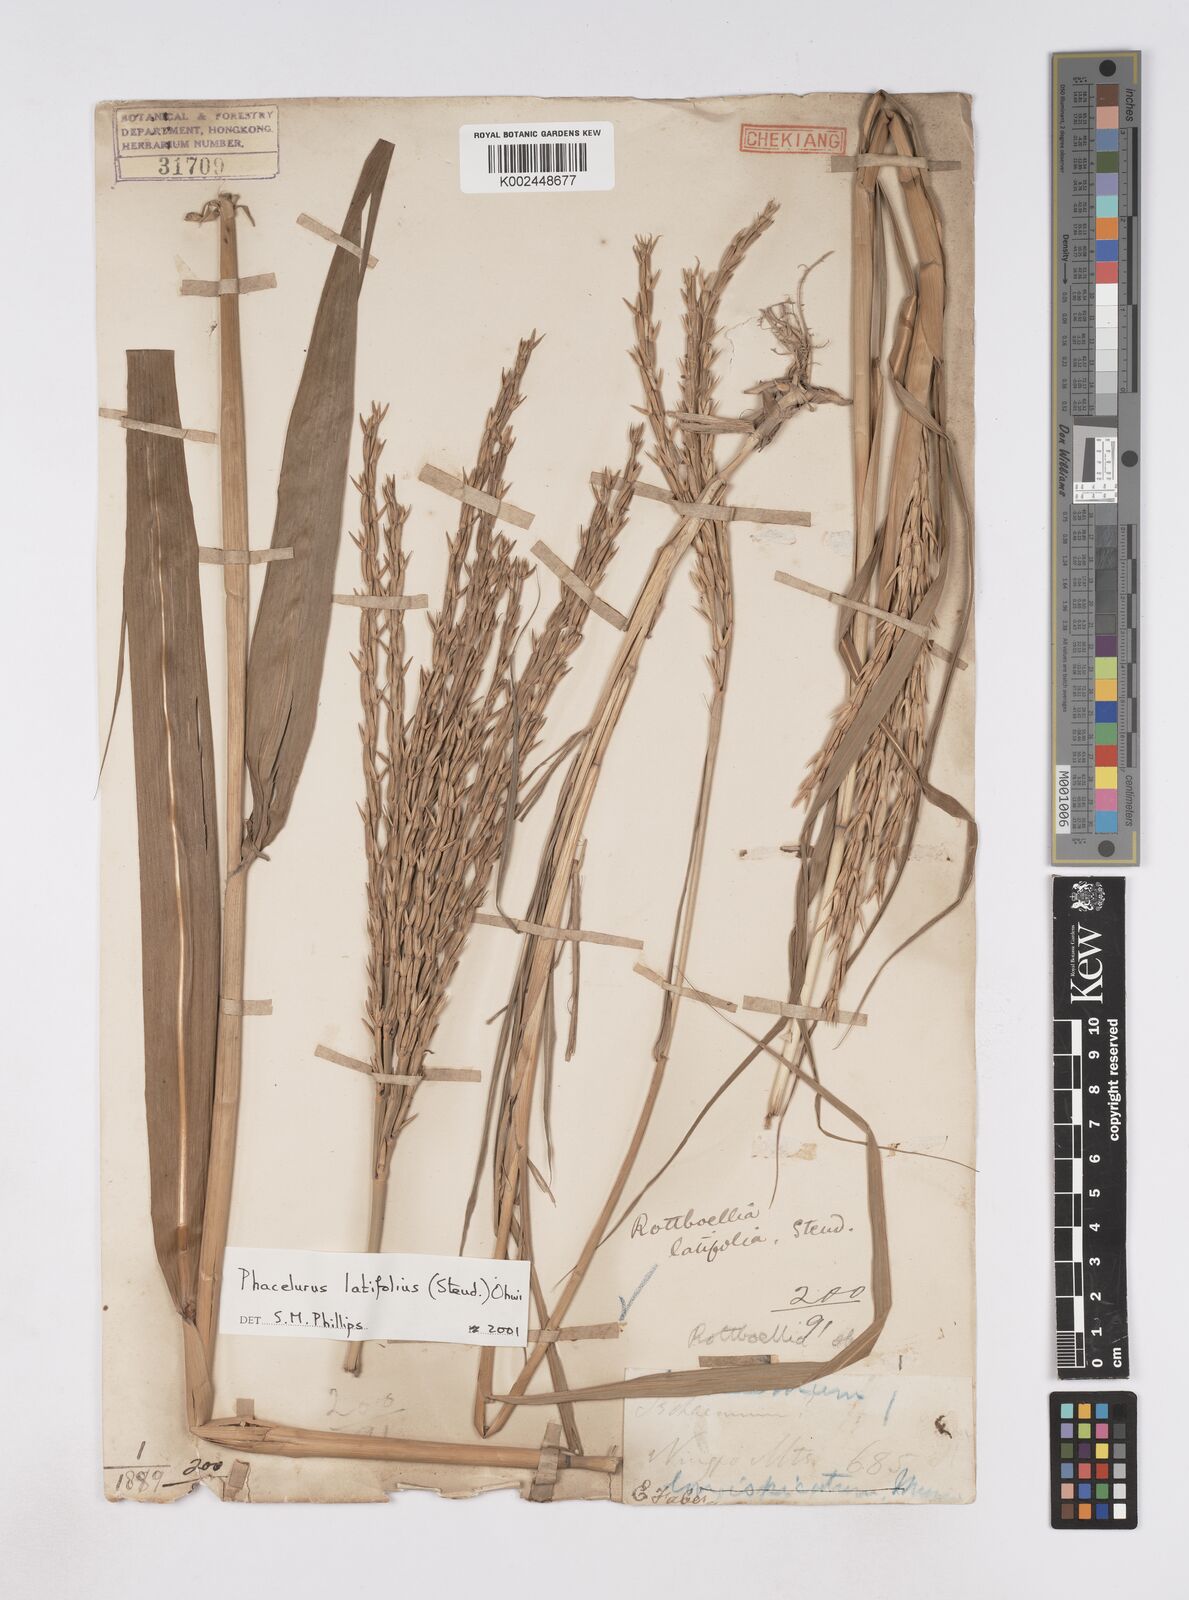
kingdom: Plantae
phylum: Tracheophyta
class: Liliopsida
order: Poales
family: Poaceae
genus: Phacelurus
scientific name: Phacelurus latifolius
